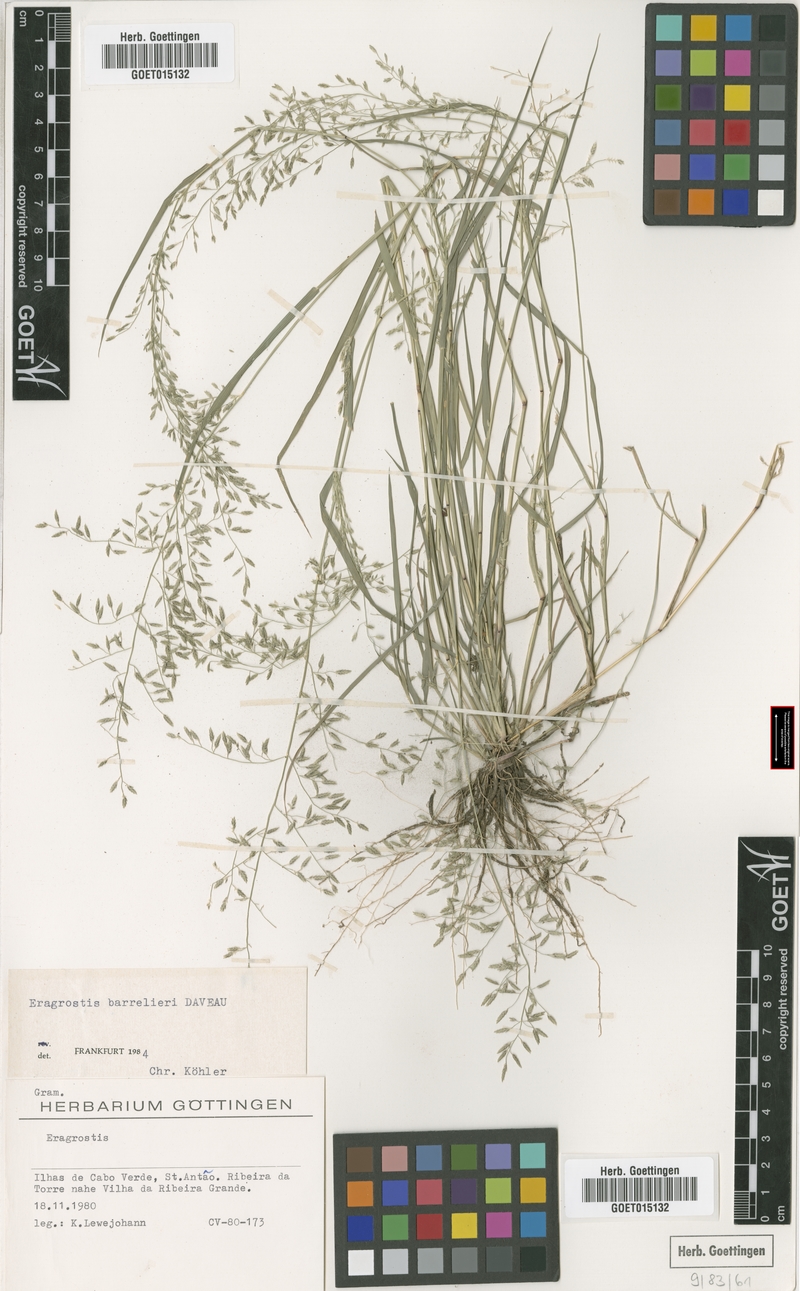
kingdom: Plantae
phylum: Tracheophyta
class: Liliopsida
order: Poales
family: Poaceae
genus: Eragrostis
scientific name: Eragrostis barrelieri
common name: Mediterranean lovegrass
